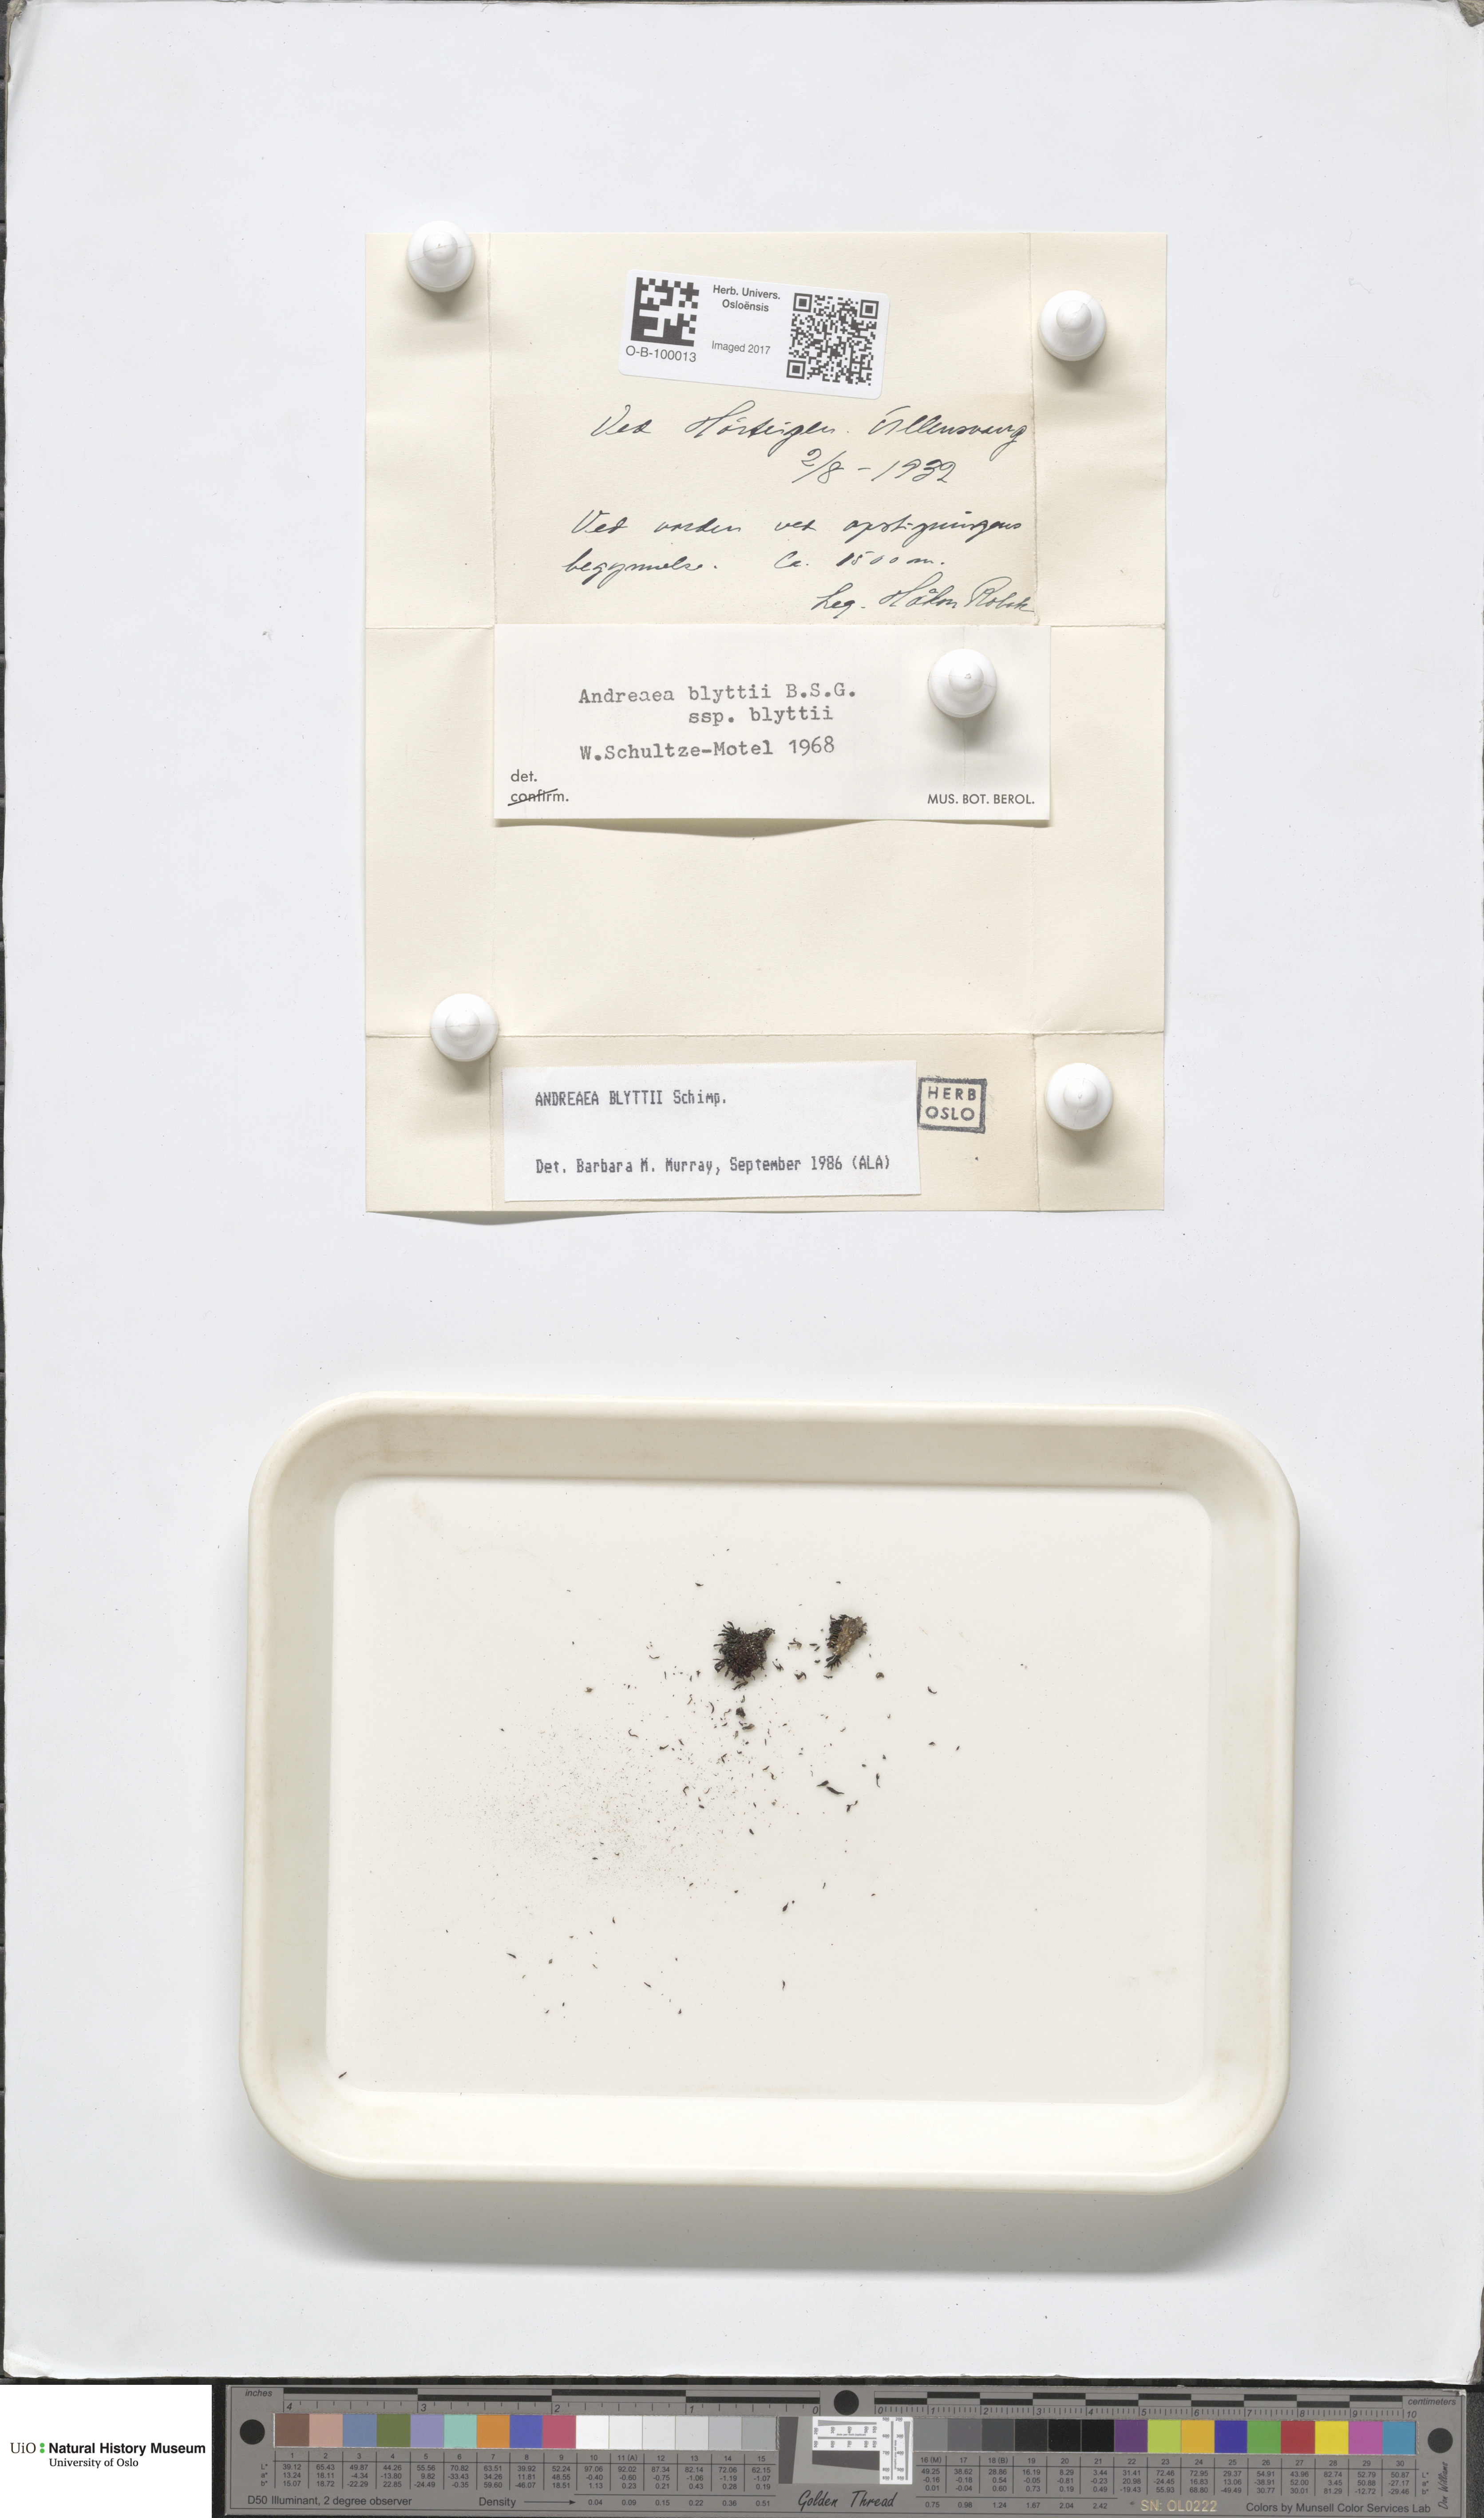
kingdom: Plantae
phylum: Bryophyta
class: Andreaeopsida
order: Andreaeales
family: Andreaeaceae
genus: Andreaea
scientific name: Andreaea hookeri
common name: Alpine rock-moss
